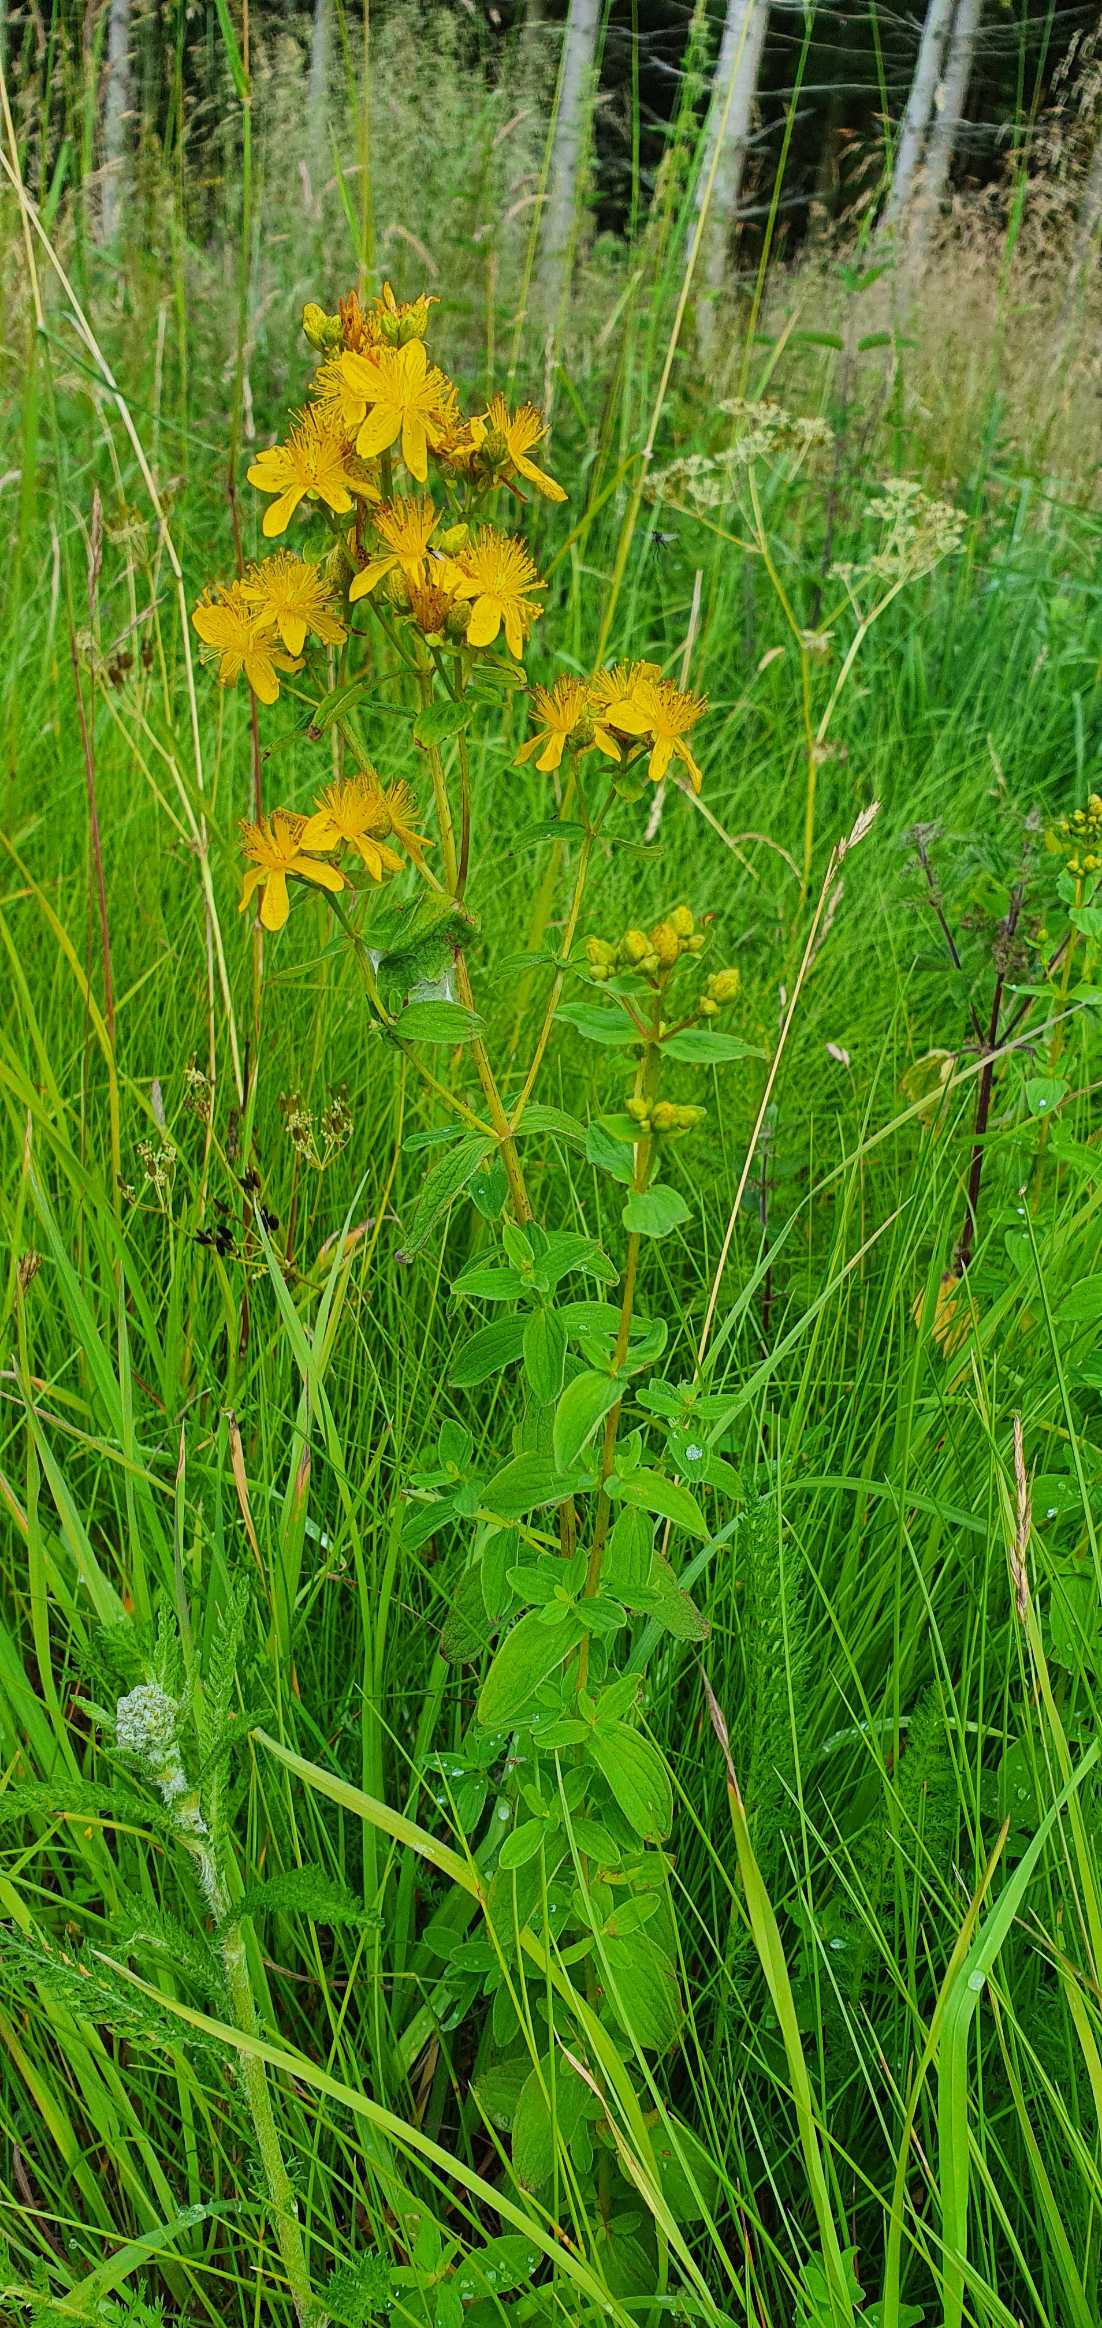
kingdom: Plantae
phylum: Tracheophyta
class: Magnoliopsida
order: Malpighiales
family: Hypericaceae
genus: Hypericum
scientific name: Hypericum maculatum
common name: Kantet perikon
